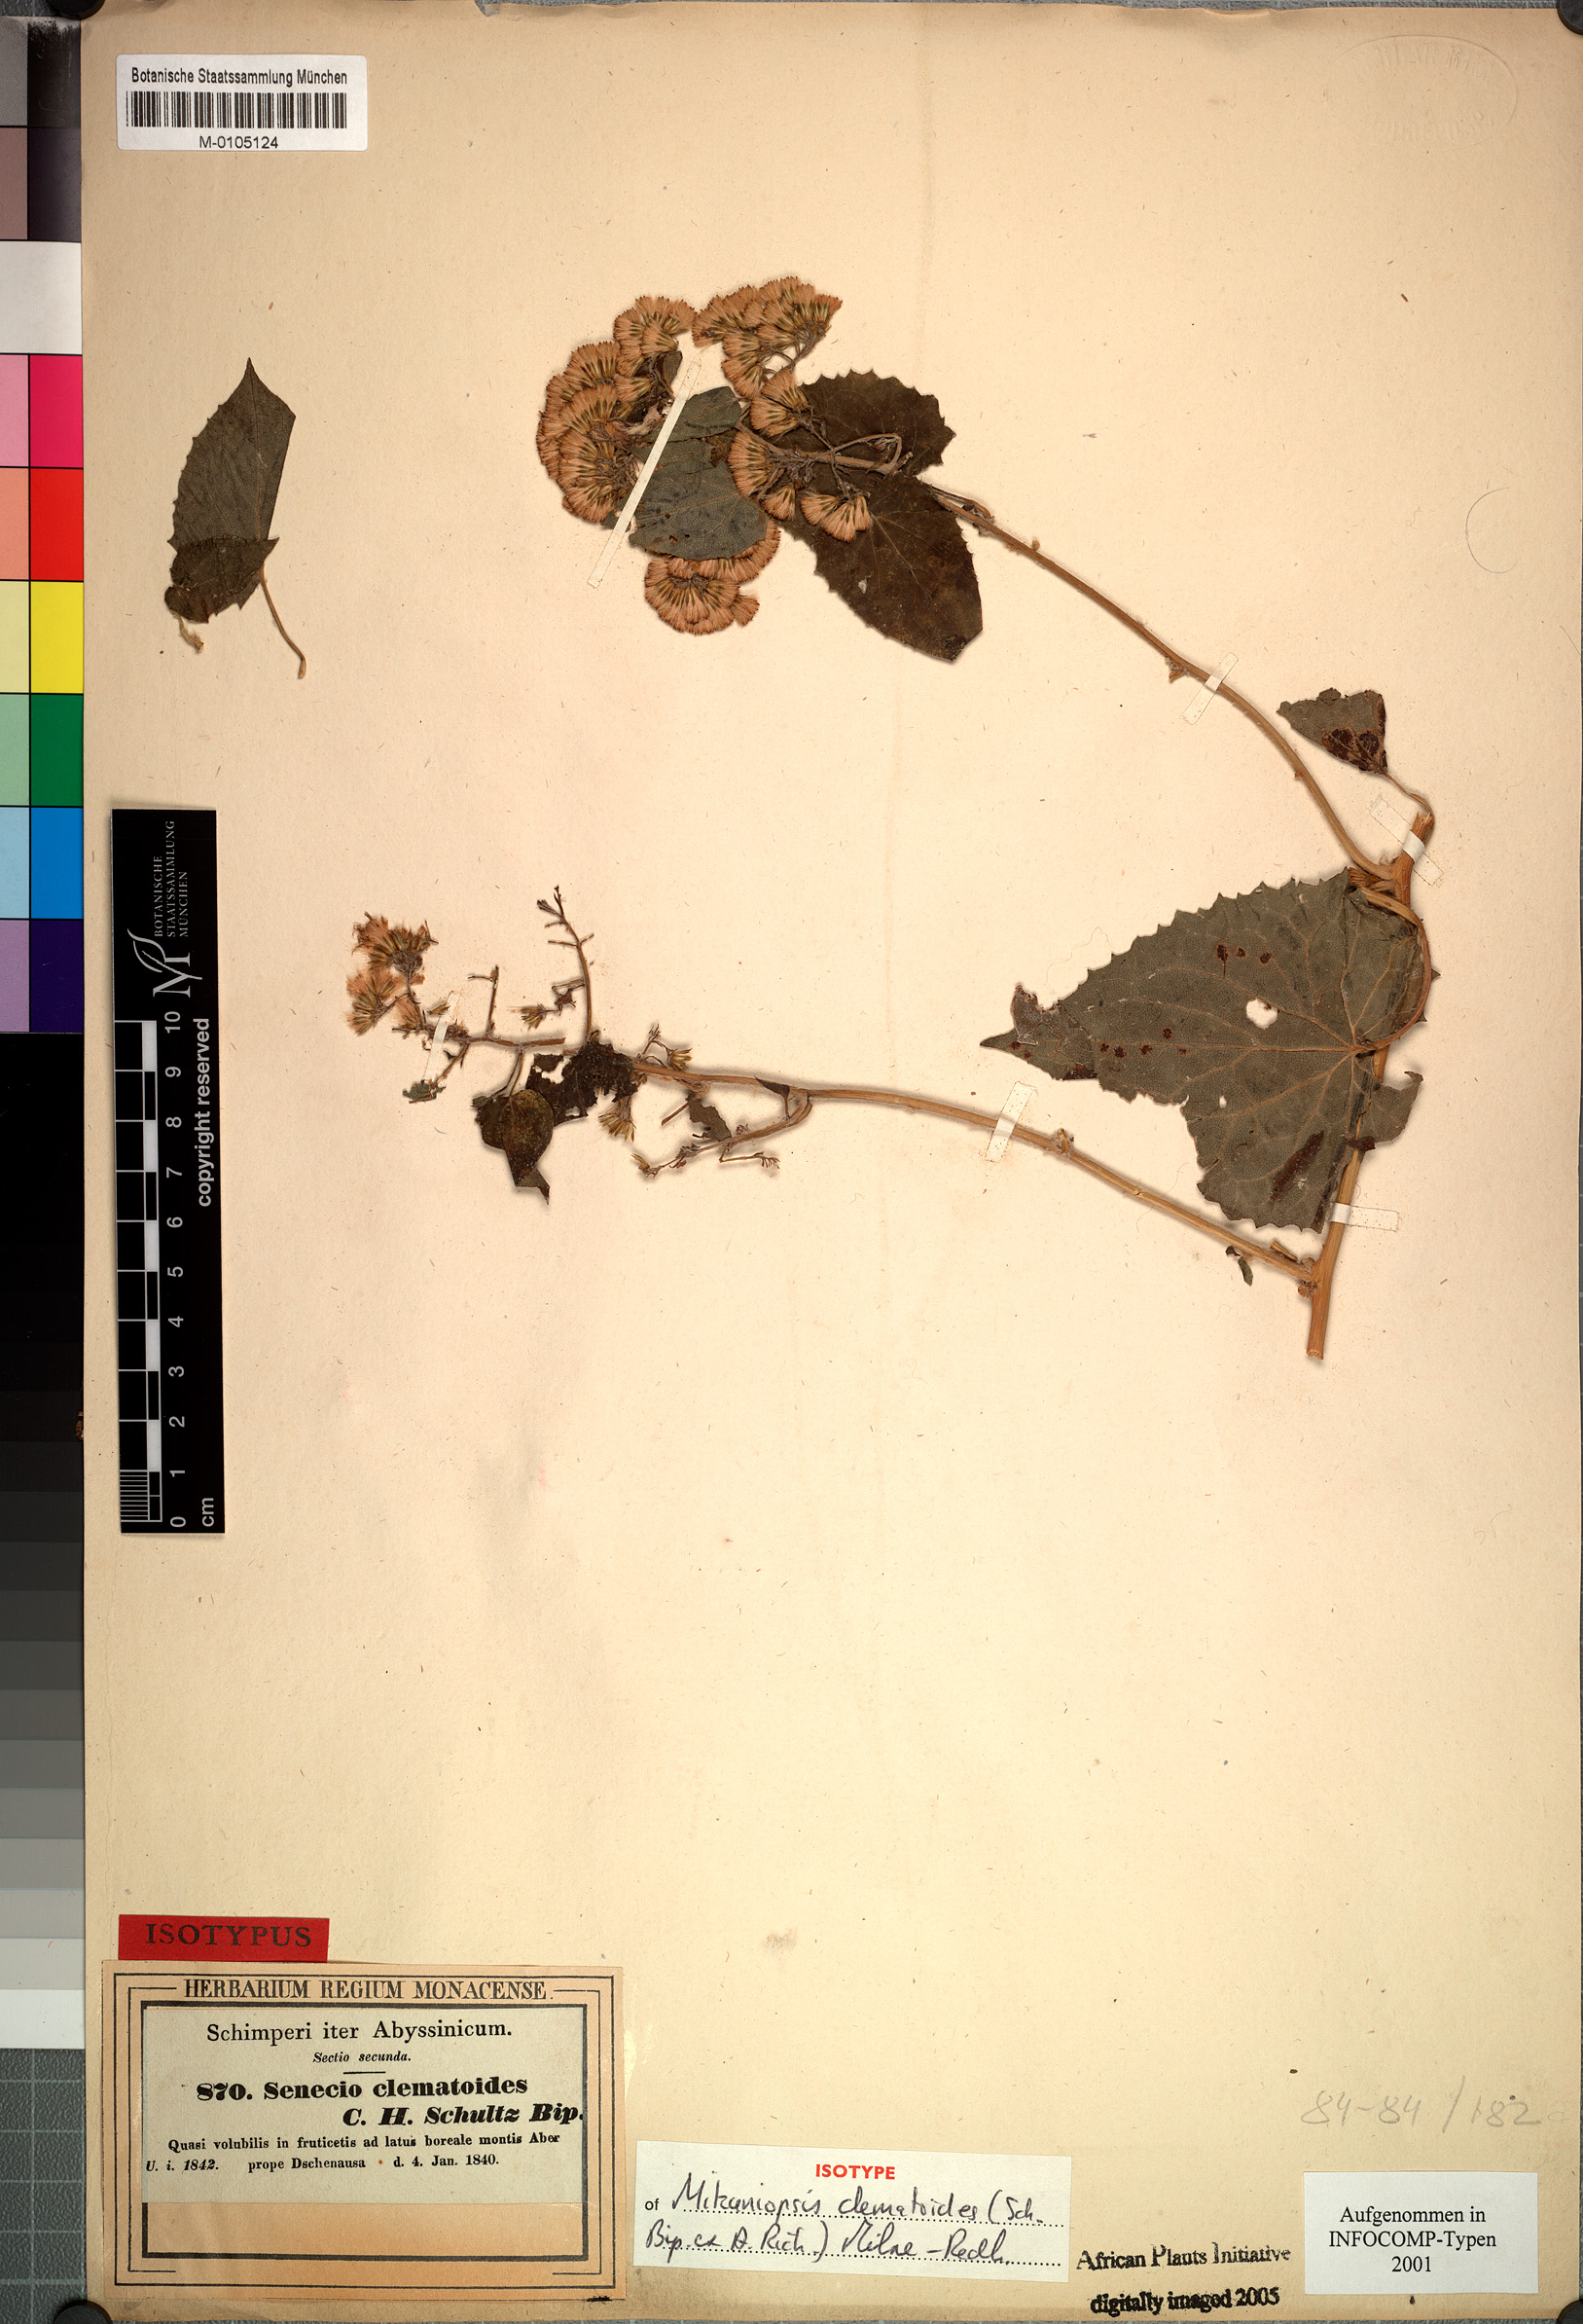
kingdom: Plantae
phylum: Tracheophyta
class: Magnoliopsida
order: Asterales
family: Asteraceae
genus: Mikaniopsis
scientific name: Mikaniopsis clematoides
